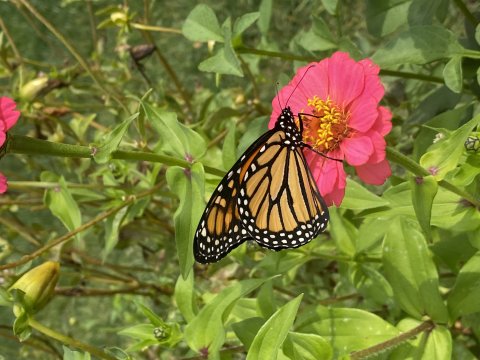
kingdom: Animalia
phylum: Arthropoda
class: Insecta
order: Lepidoptera
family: Nymphalidae
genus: Danaus
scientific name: Danaus plexippus
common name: Monarch
